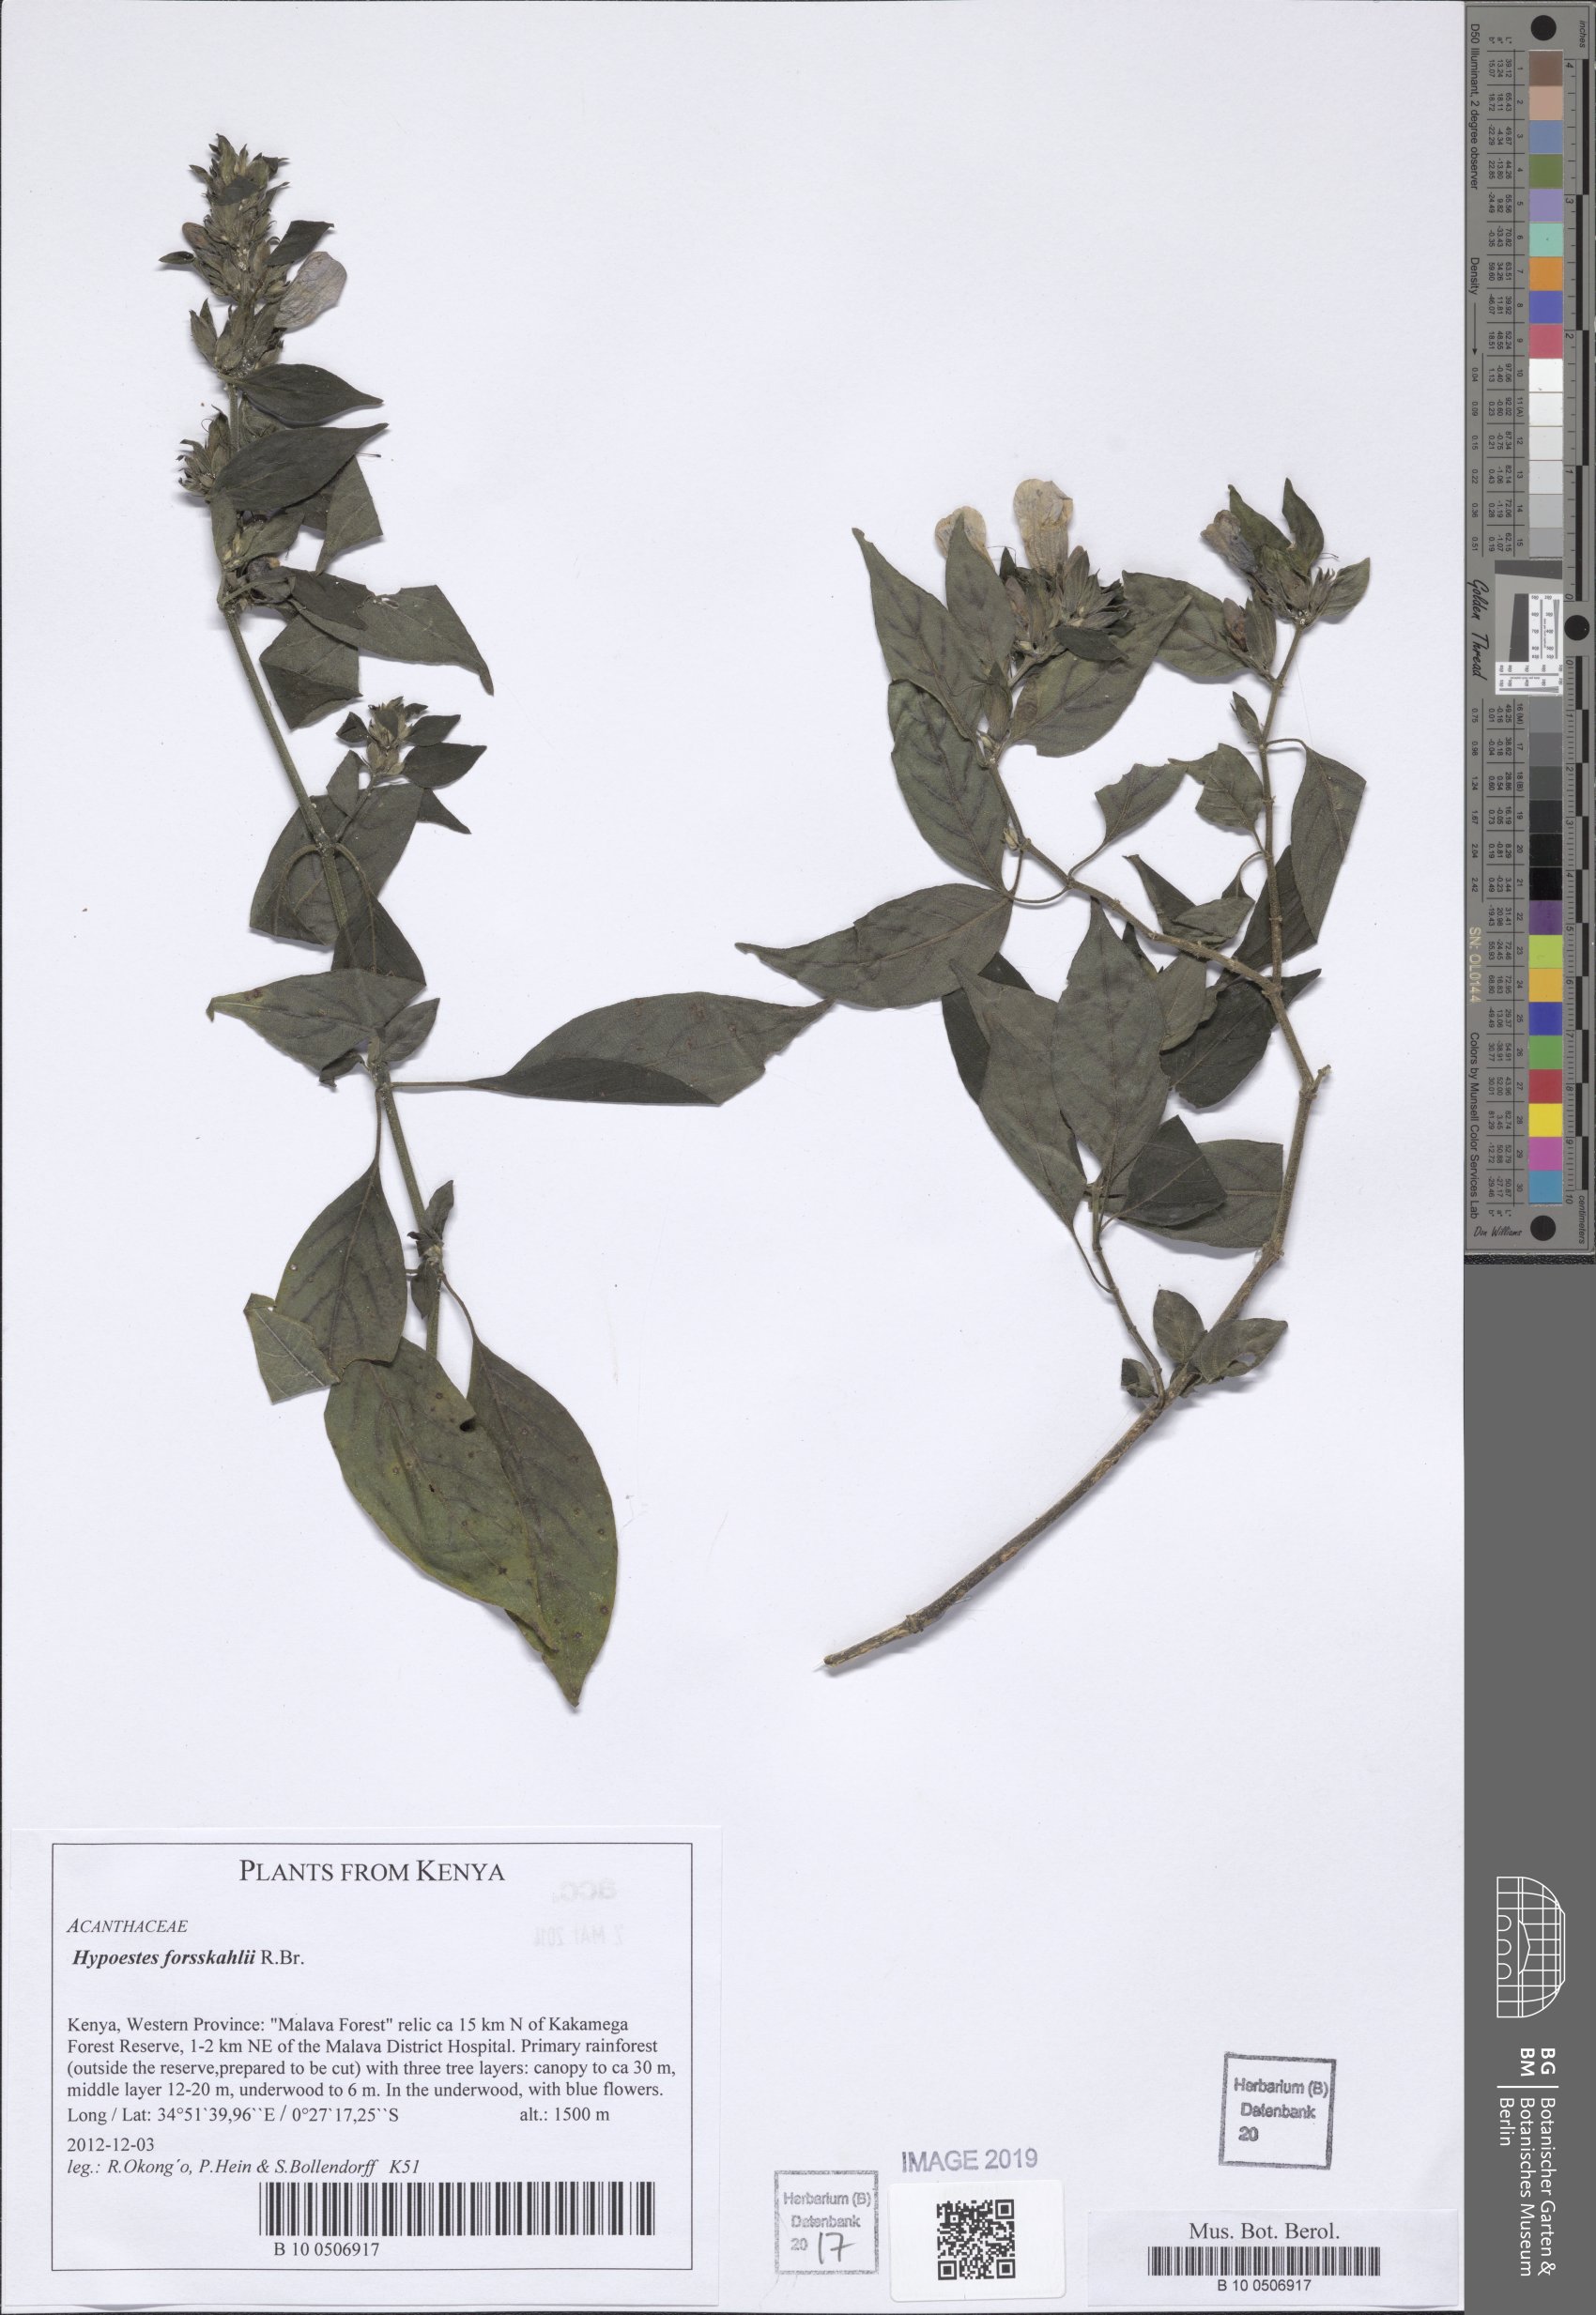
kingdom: Plantae
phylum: Tracheophyta
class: Magnoliopsida
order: Lamiales
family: Acanthaceae
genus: Hypoestes
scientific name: Hypoestes forskaolii
